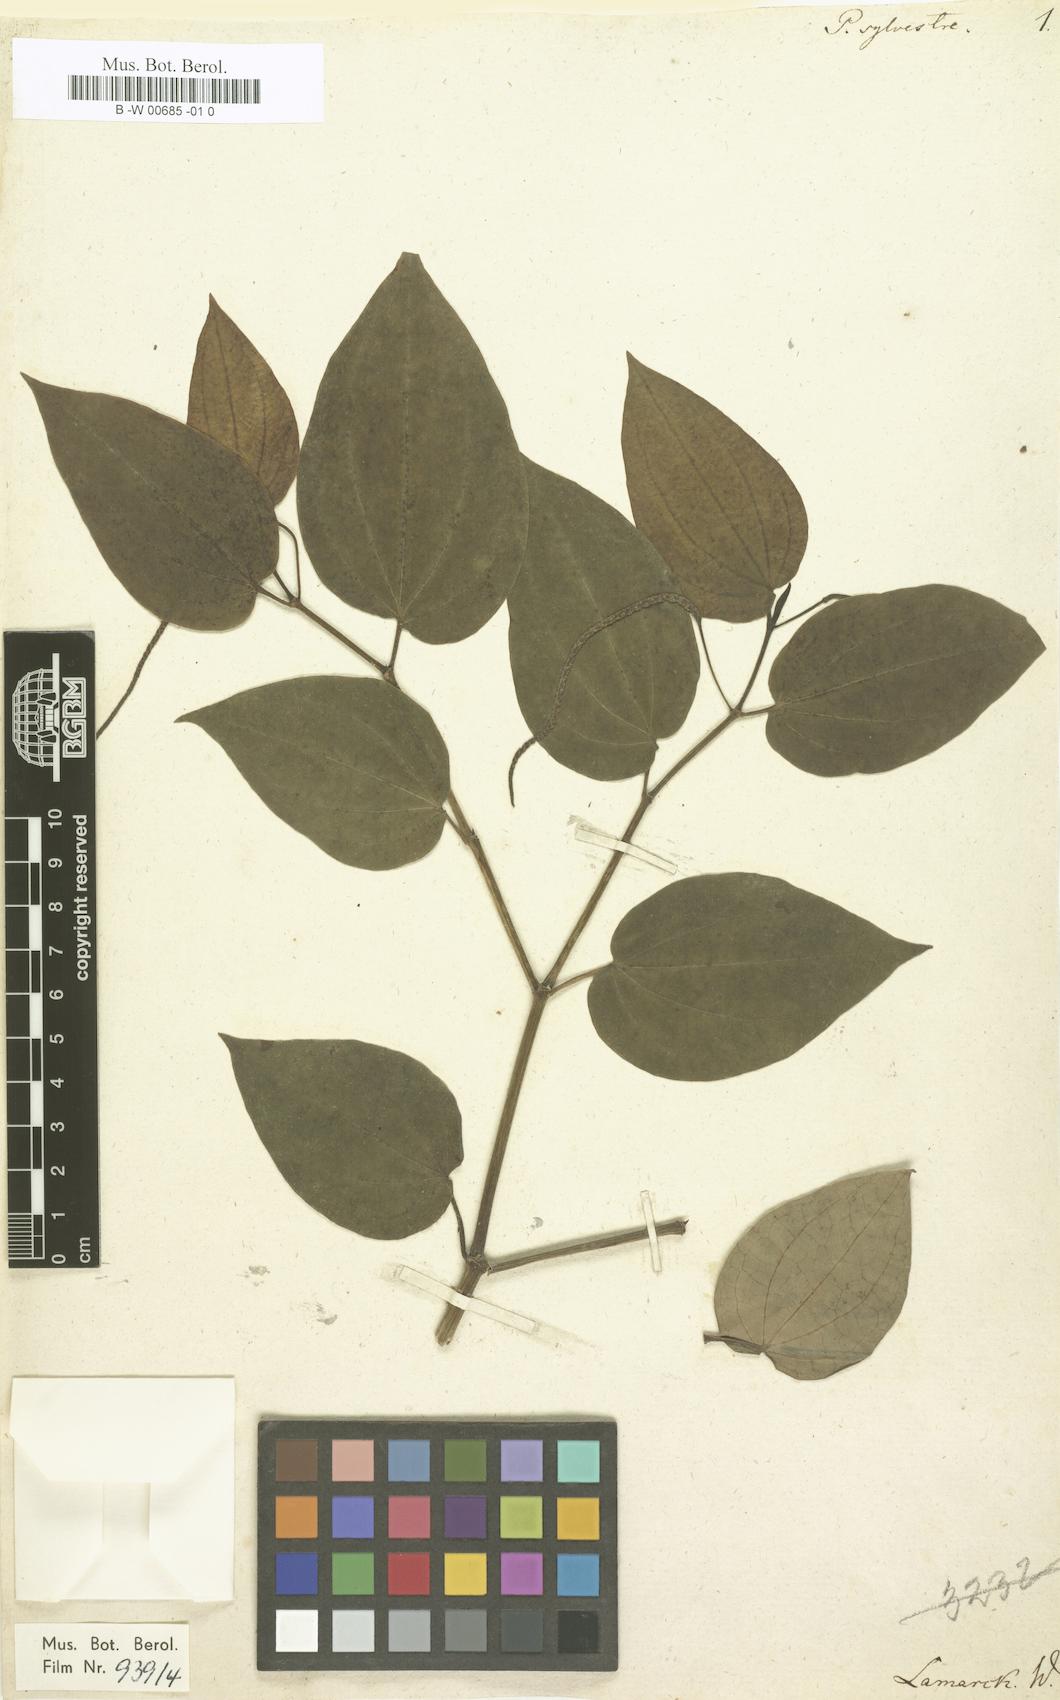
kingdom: Plantae
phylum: Tracheophyta
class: Magnoliopsida
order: Piperales
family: Piperaceae
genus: Piper
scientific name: Piper fallax
